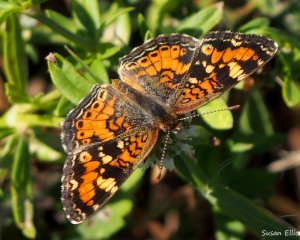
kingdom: Animalia
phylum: Arthropoda
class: Insecta
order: Lepidoptera
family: Nymphalidae
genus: Phyciodes
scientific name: Phyciodes phaon
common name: Phaon Crescent
